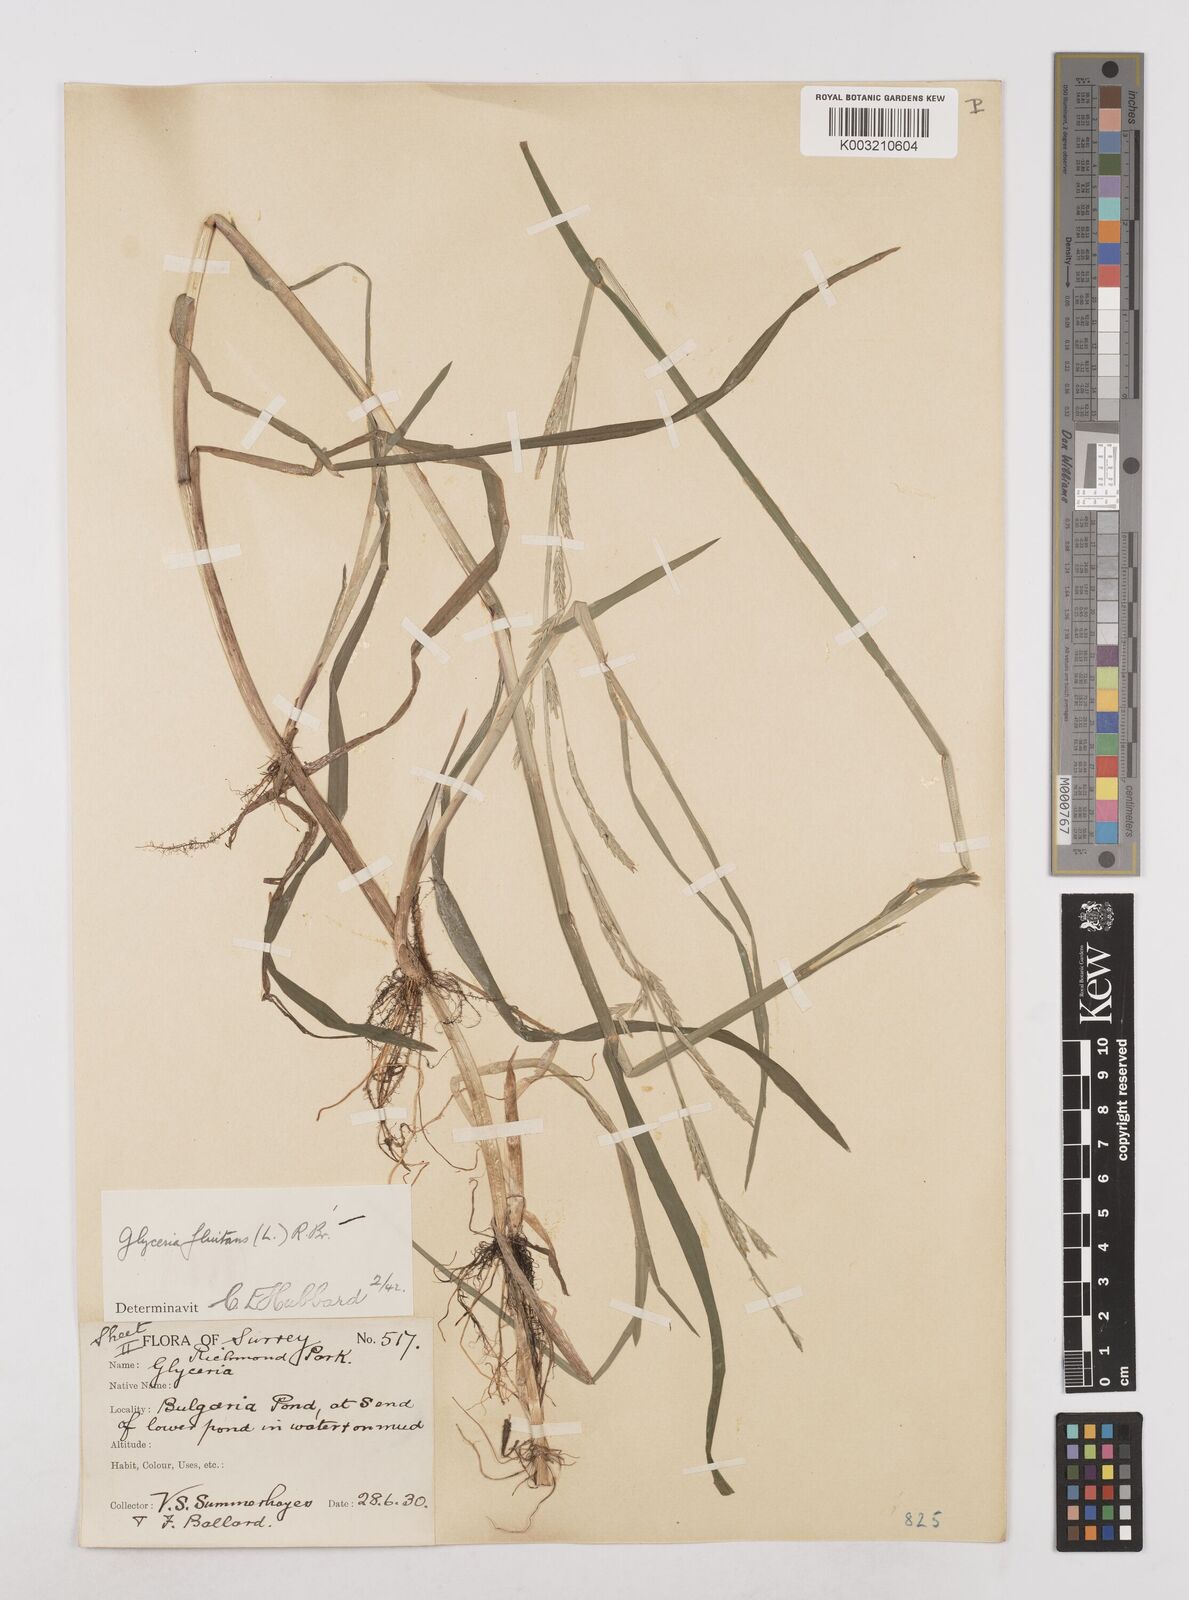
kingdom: Plantae
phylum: Tracheophyta
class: Liliopsida
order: Poales
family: Poaceae
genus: Glyceria
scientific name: Glyceria fluitans
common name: Floating sweet-grass
